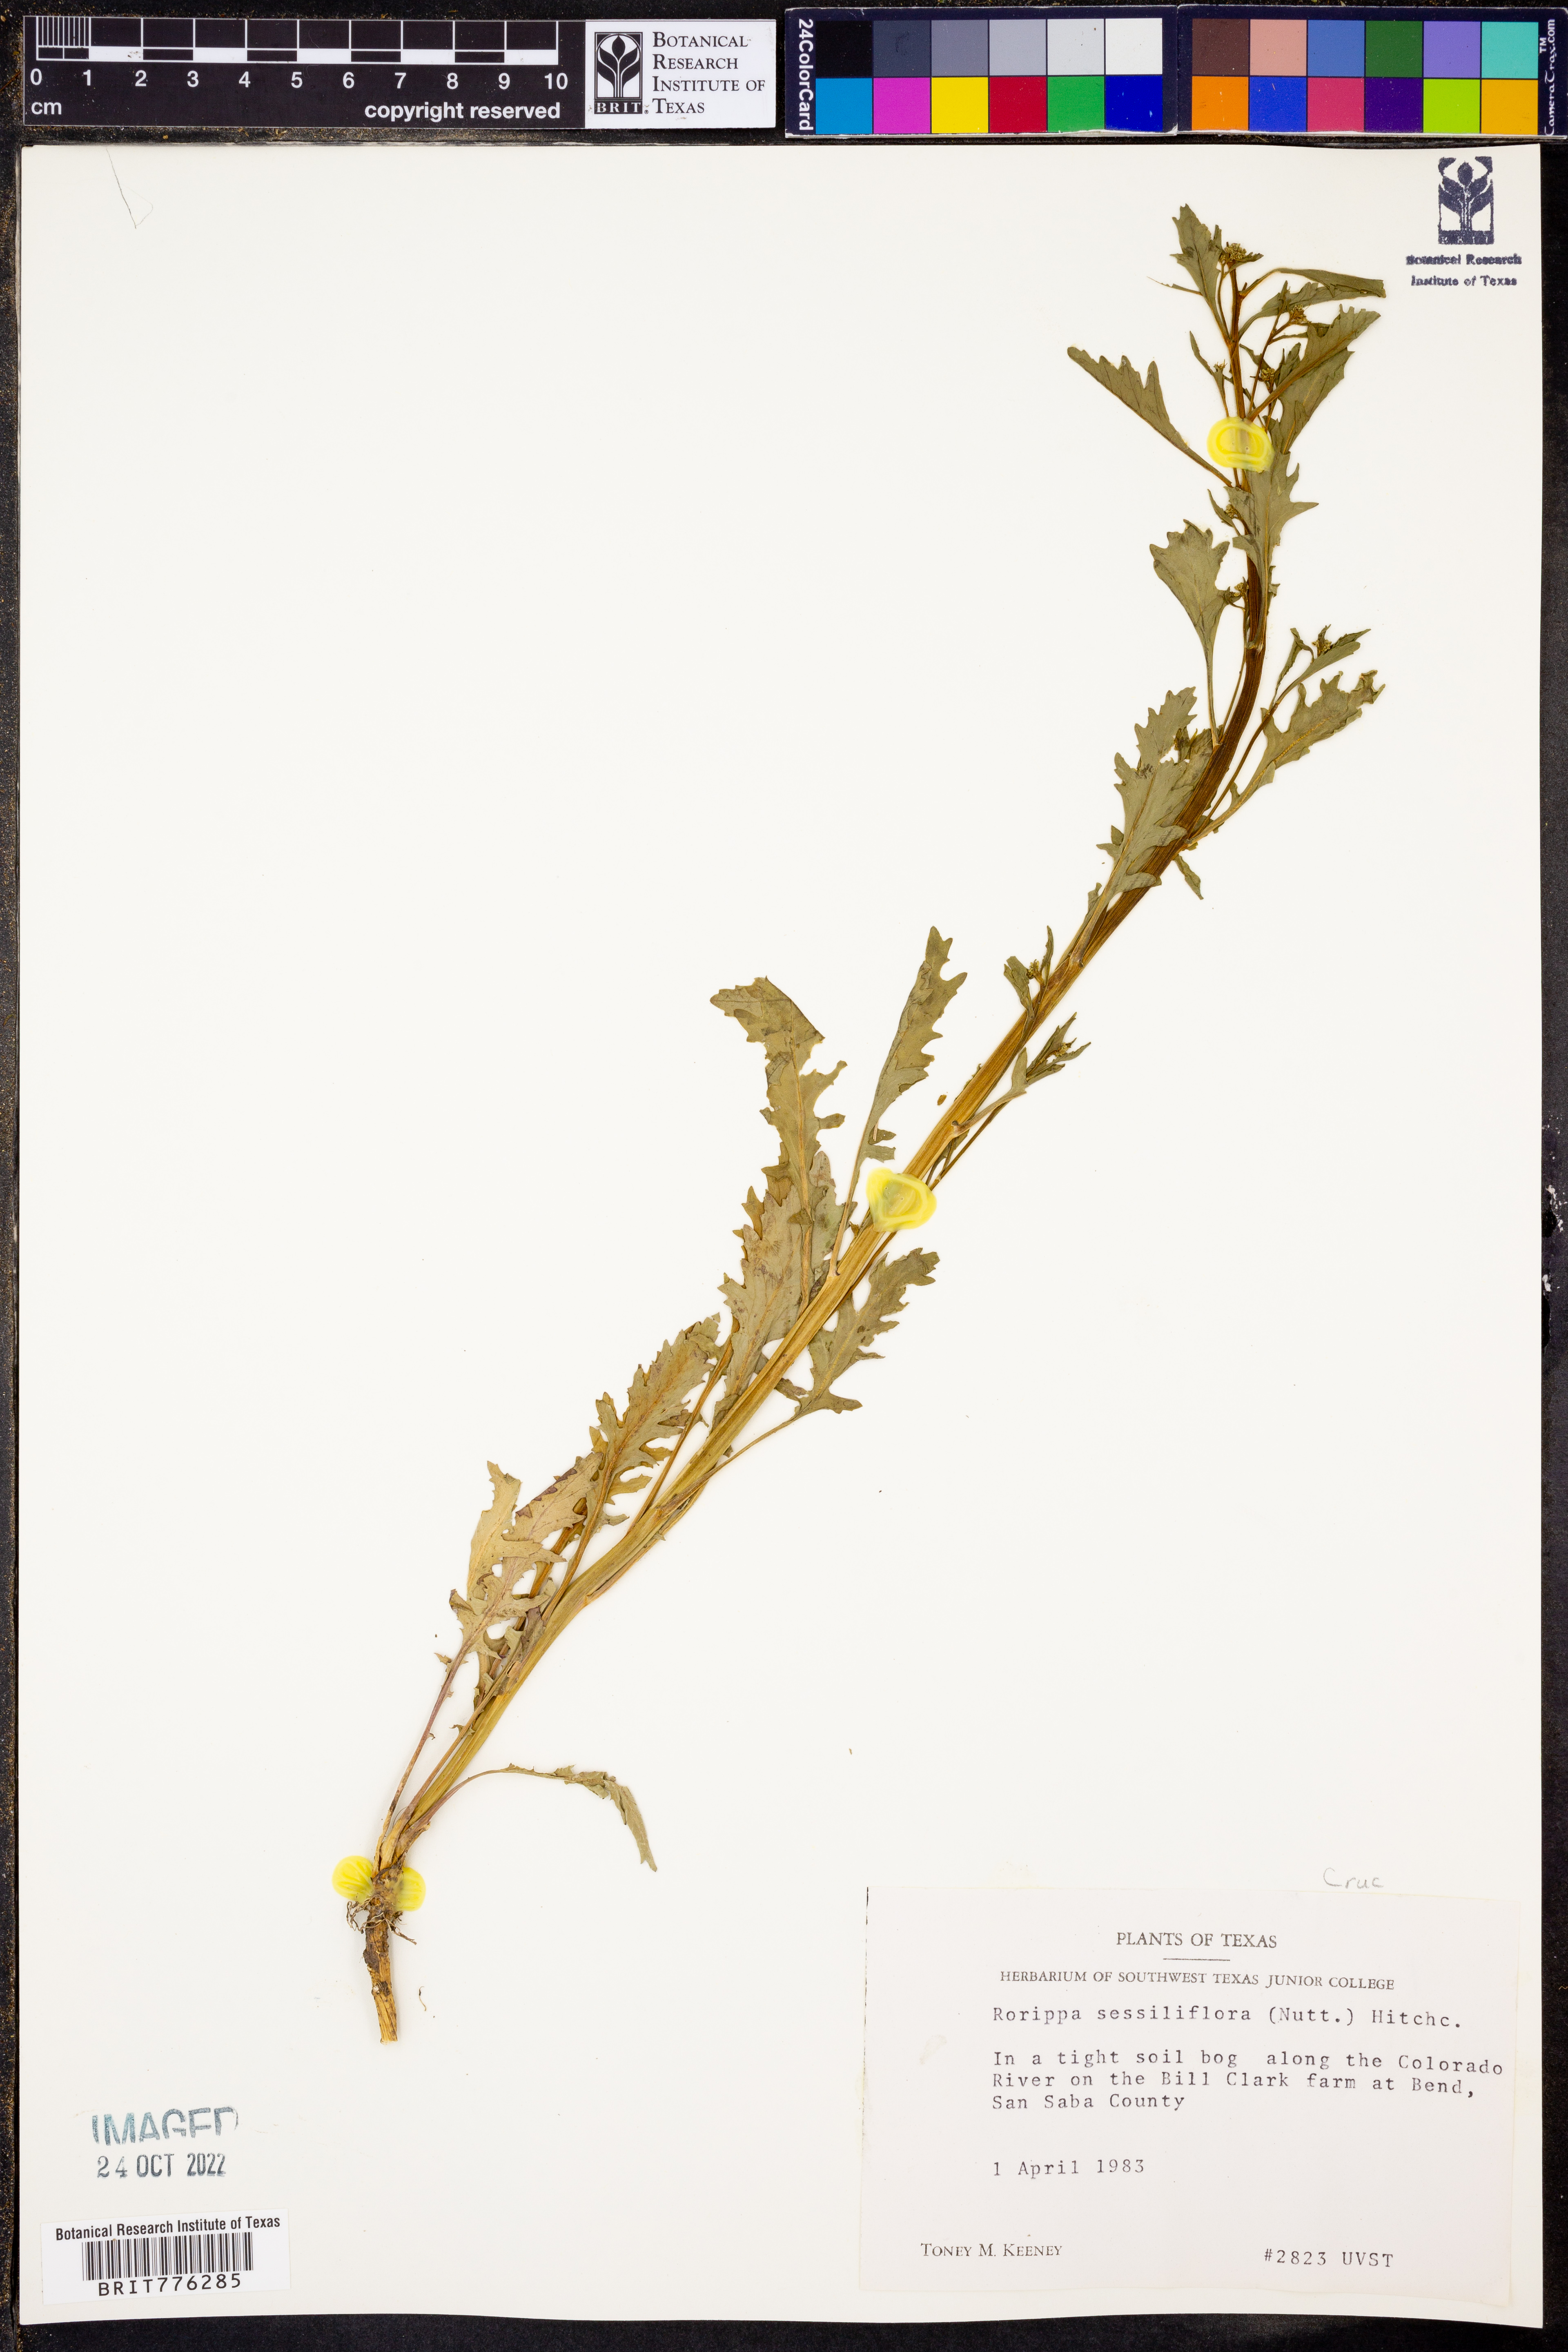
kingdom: Plantae
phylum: Tracheophyta
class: Magnoliopsida
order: Brassicales
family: Brassicaceae
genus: Rorippa
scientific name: Rorippa sessiliflora
